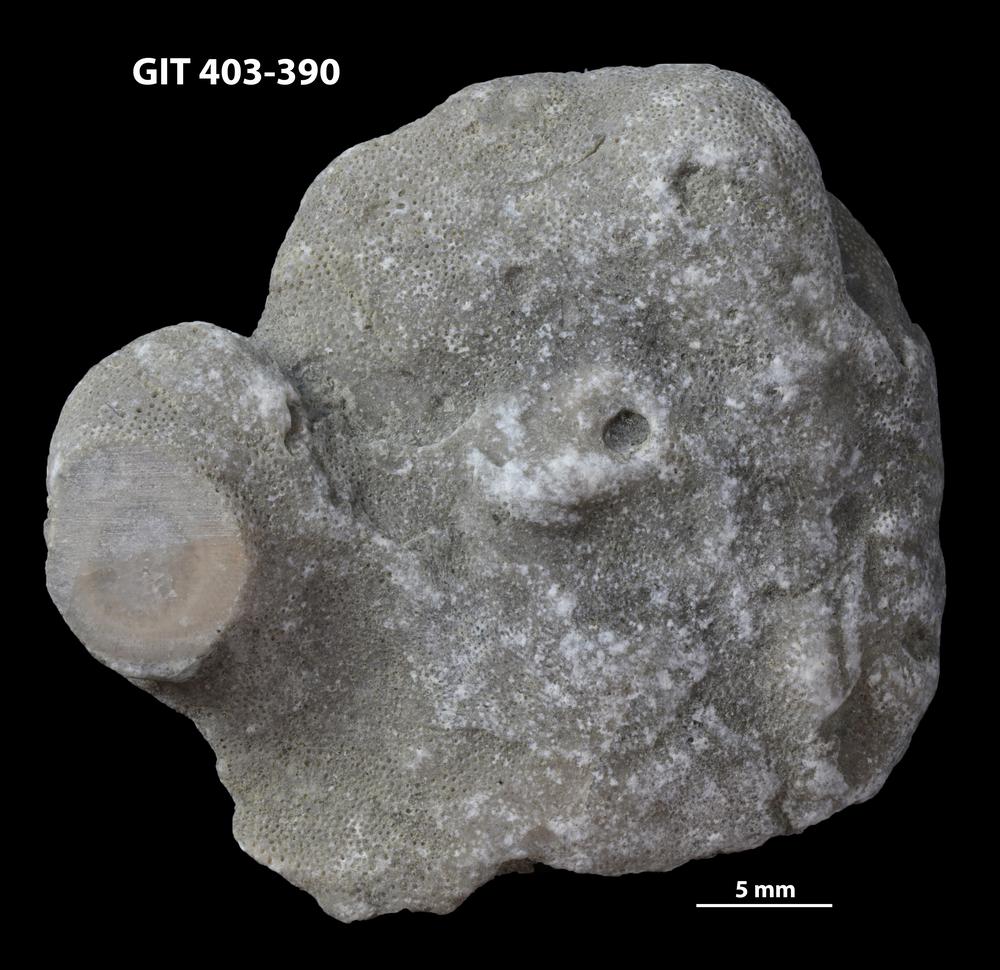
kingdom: Animalia
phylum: Bryozoa
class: Stenolaemata
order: Cystoporida
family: Fistuliporidae
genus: Fistulipora
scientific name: Fistulipora przhidolensis
